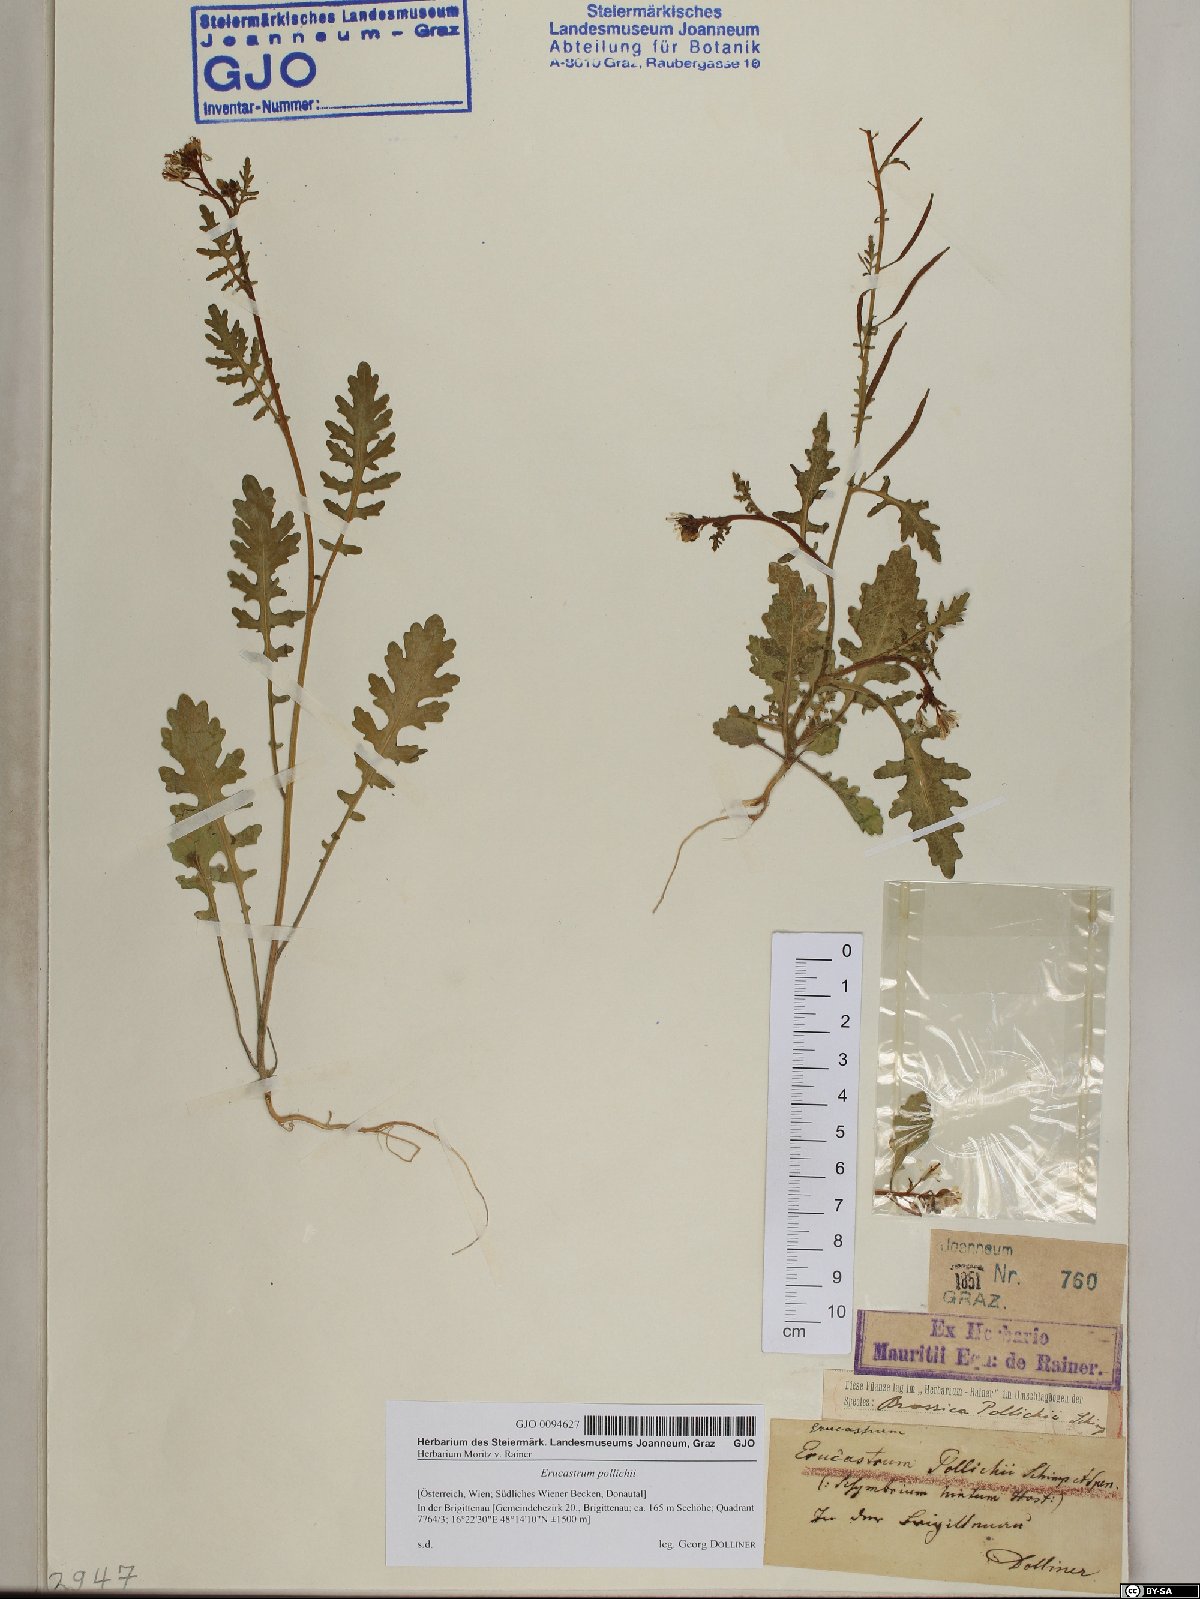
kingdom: Plantae
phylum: Tracheophyta
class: Magnoliopsida
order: Brassicales
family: Brassicaceae
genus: Erucastrum
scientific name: Erucastrum gallicum
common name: Hairy rocket
